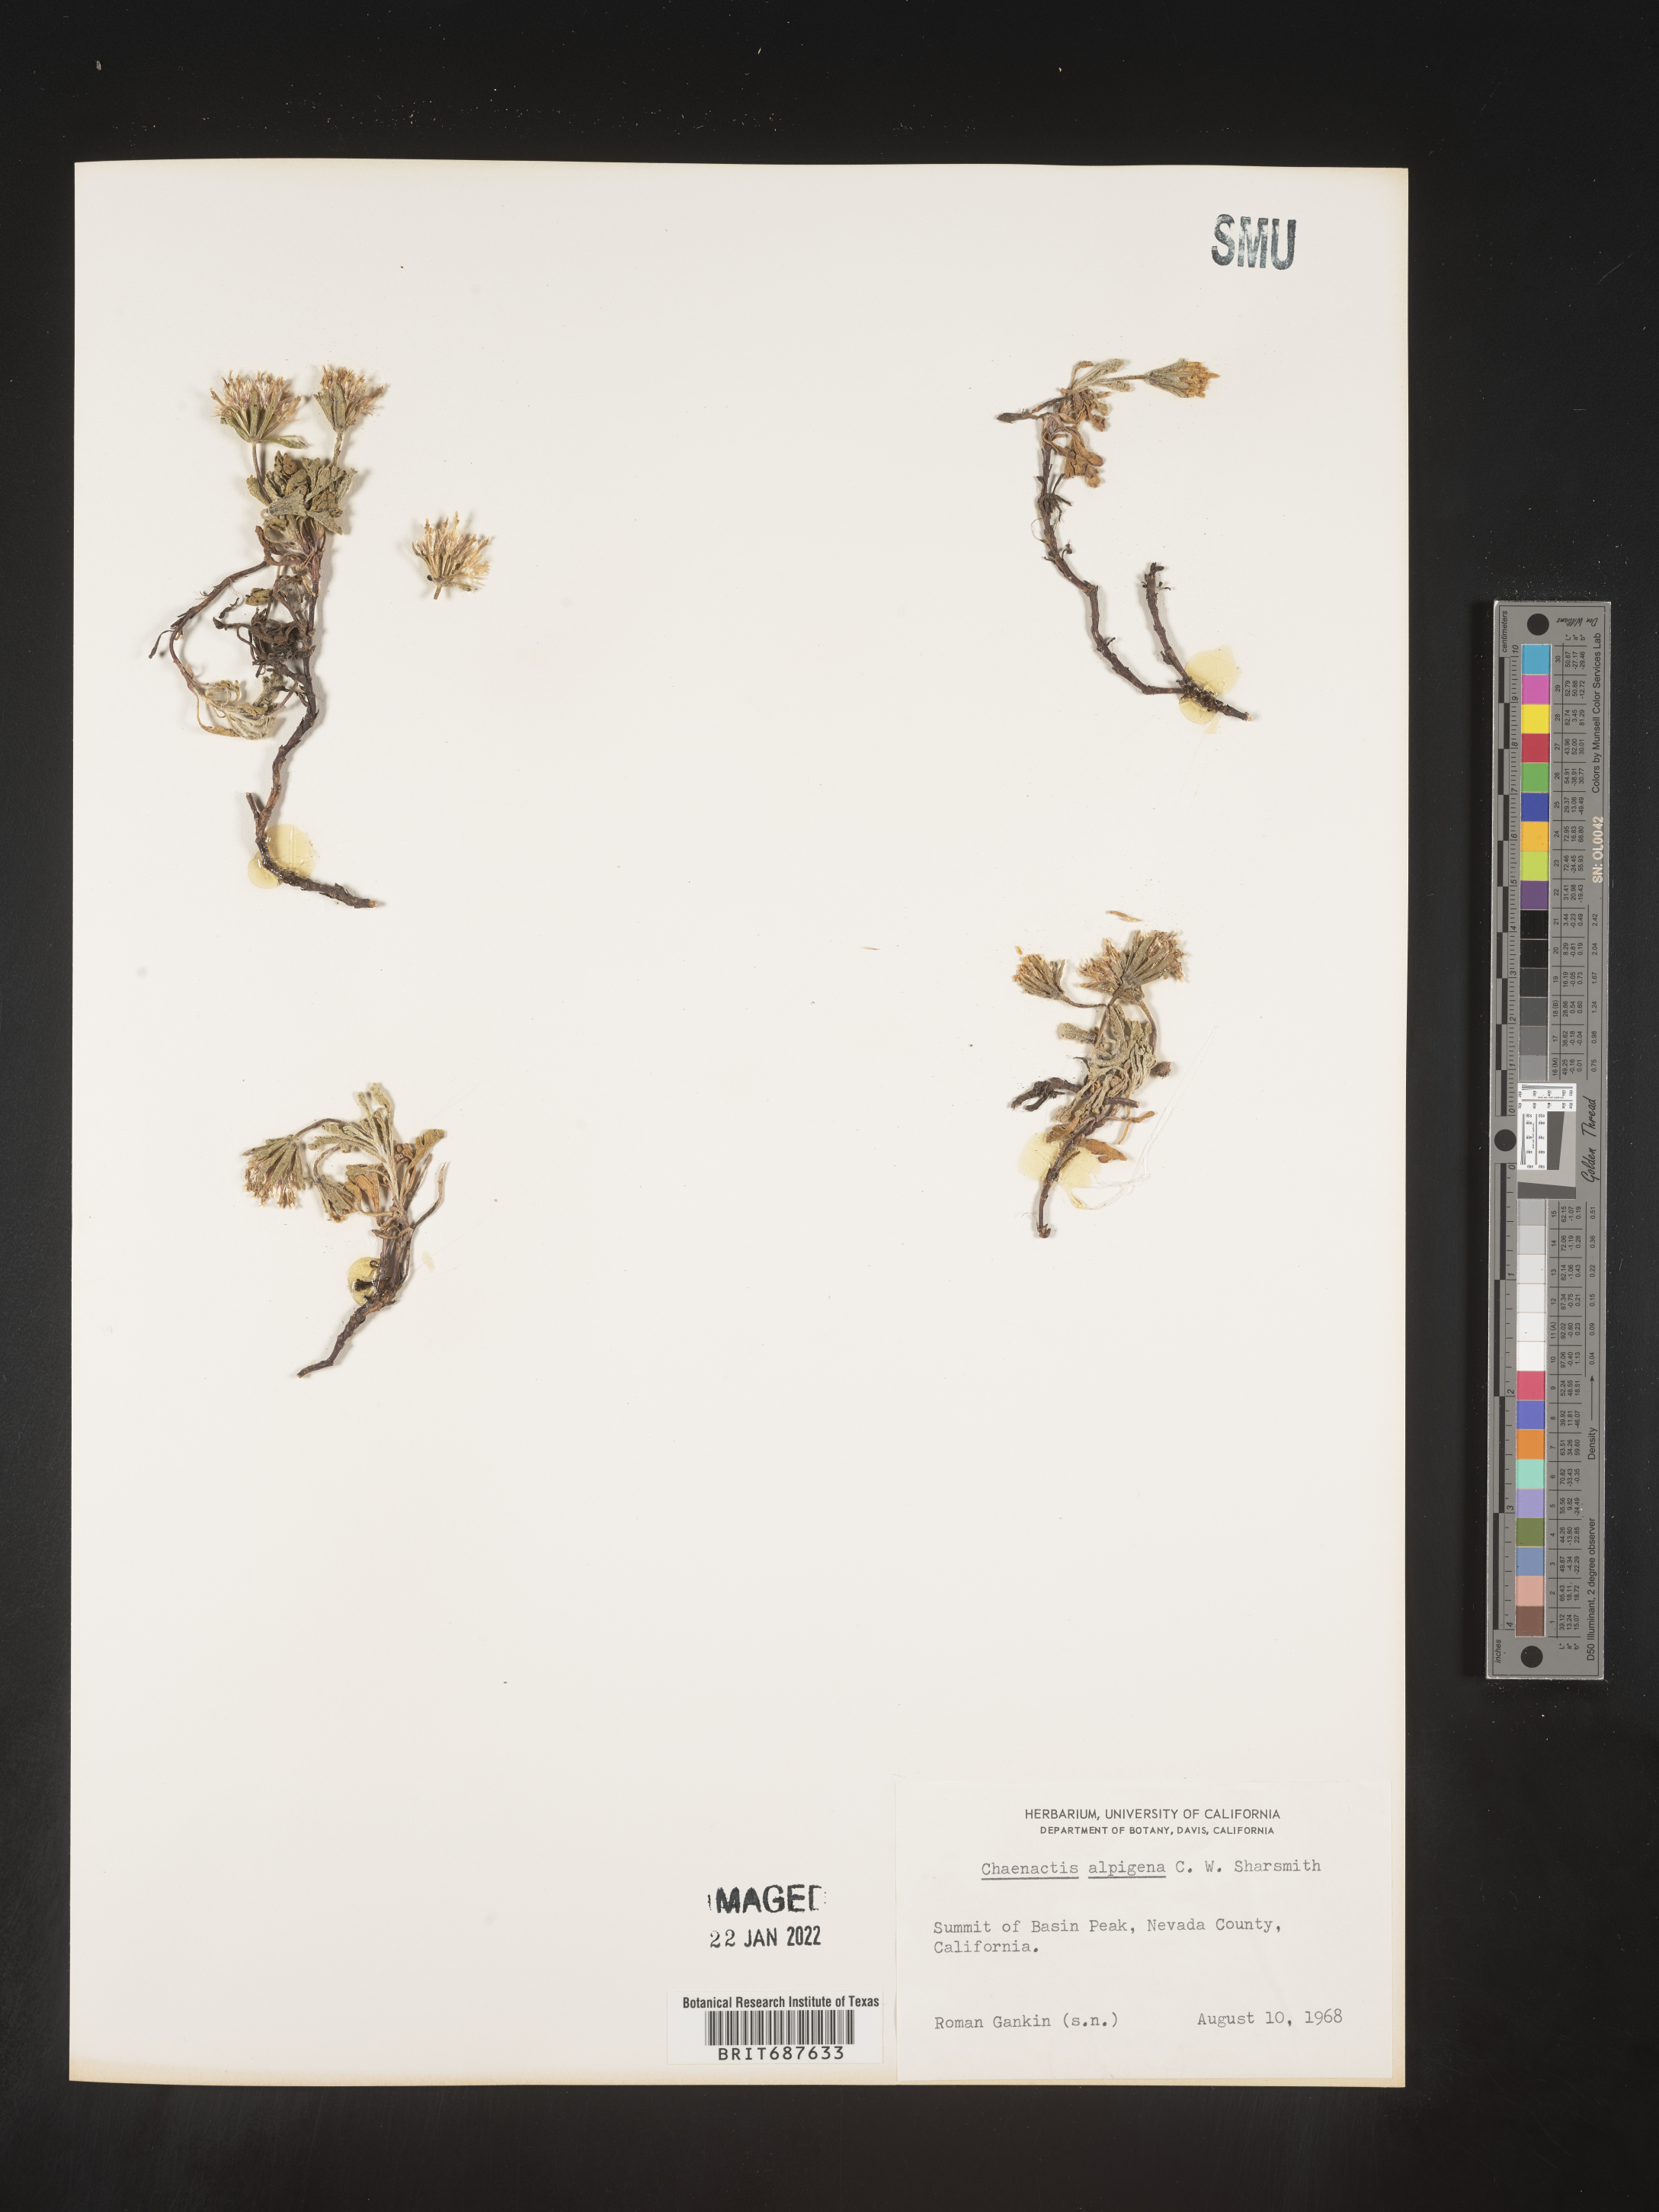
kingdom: Plantae
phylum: Tracheophyta
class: Magnoliopsida
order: Asterales
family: Asteraceae
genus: Chaenactis
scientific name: Chaenactis
